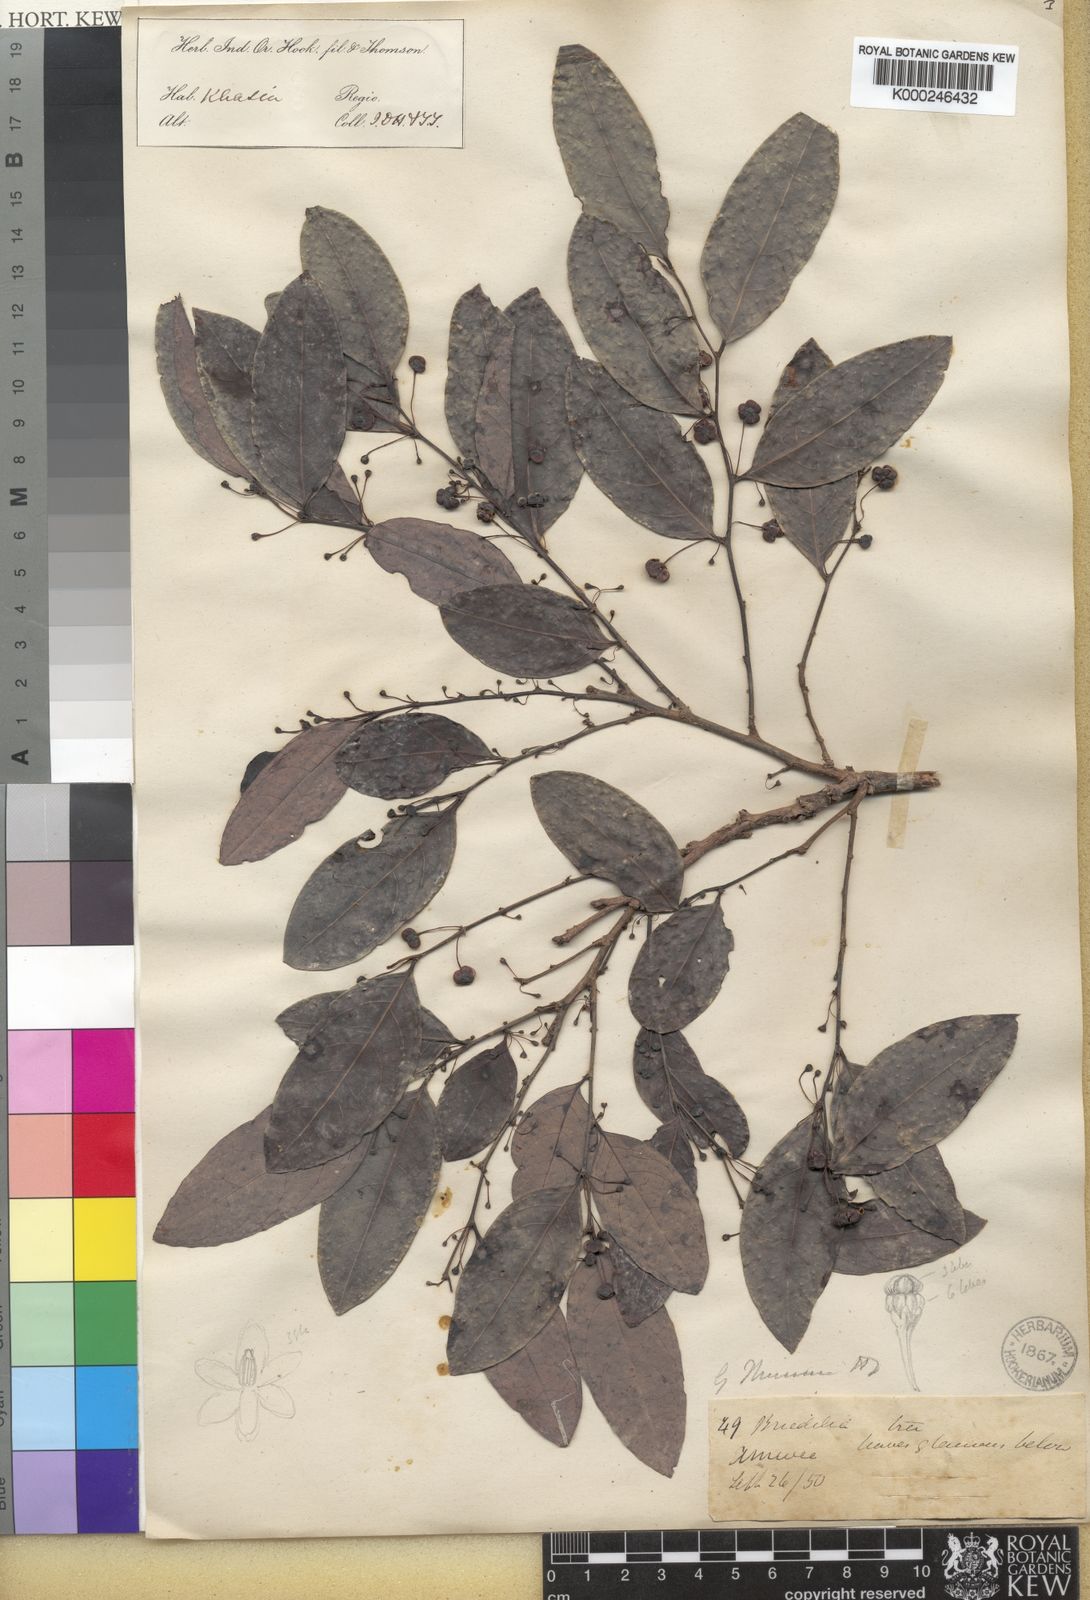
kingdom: Plantae
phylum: Tracheophyta
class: Magnoliopsida
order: Malpighiales
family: Phyllanthaceae
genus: Glochidion
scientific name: Glochidion
